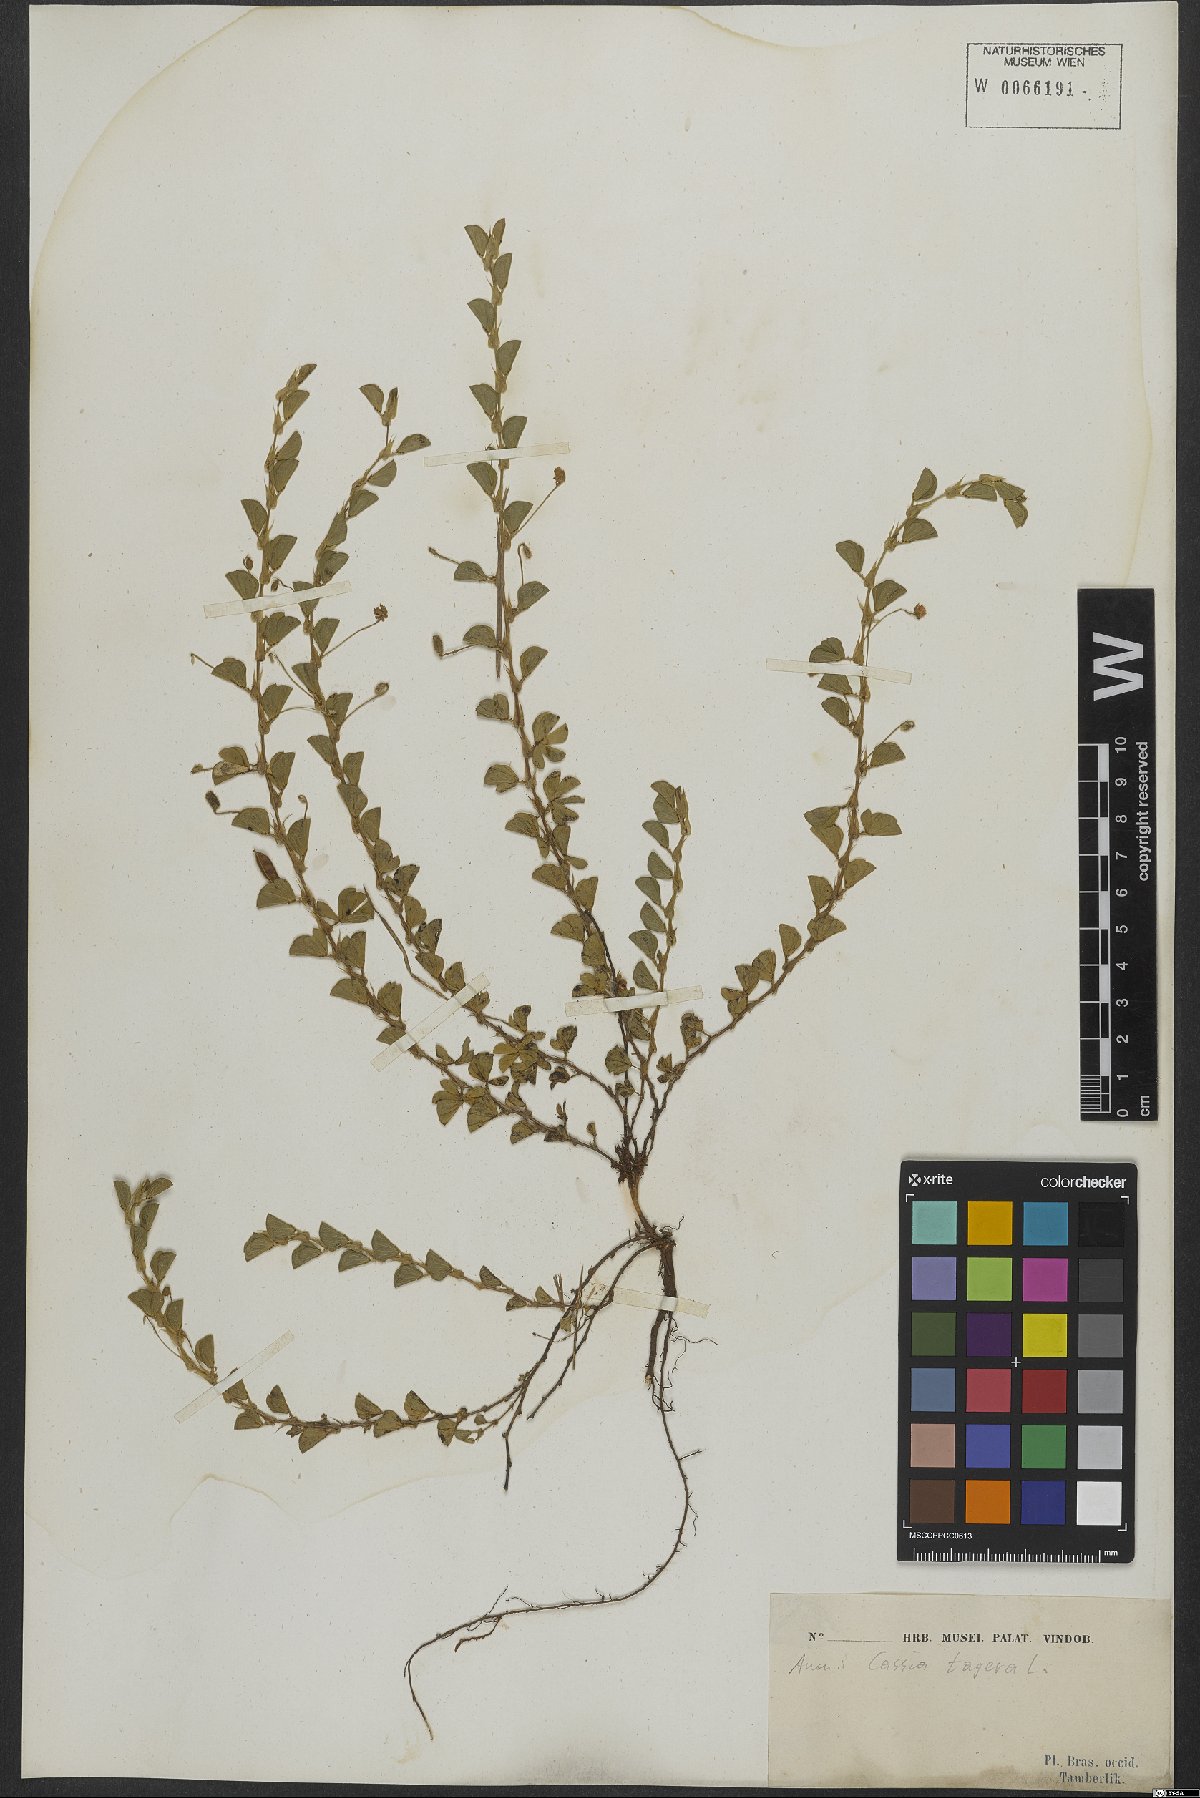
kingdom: Plantae
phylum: Tracheophyta
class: Magnoliopsida
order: Fabales
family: Fabaceae
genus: Senna
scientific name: Senna tora
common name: Sickle senna
